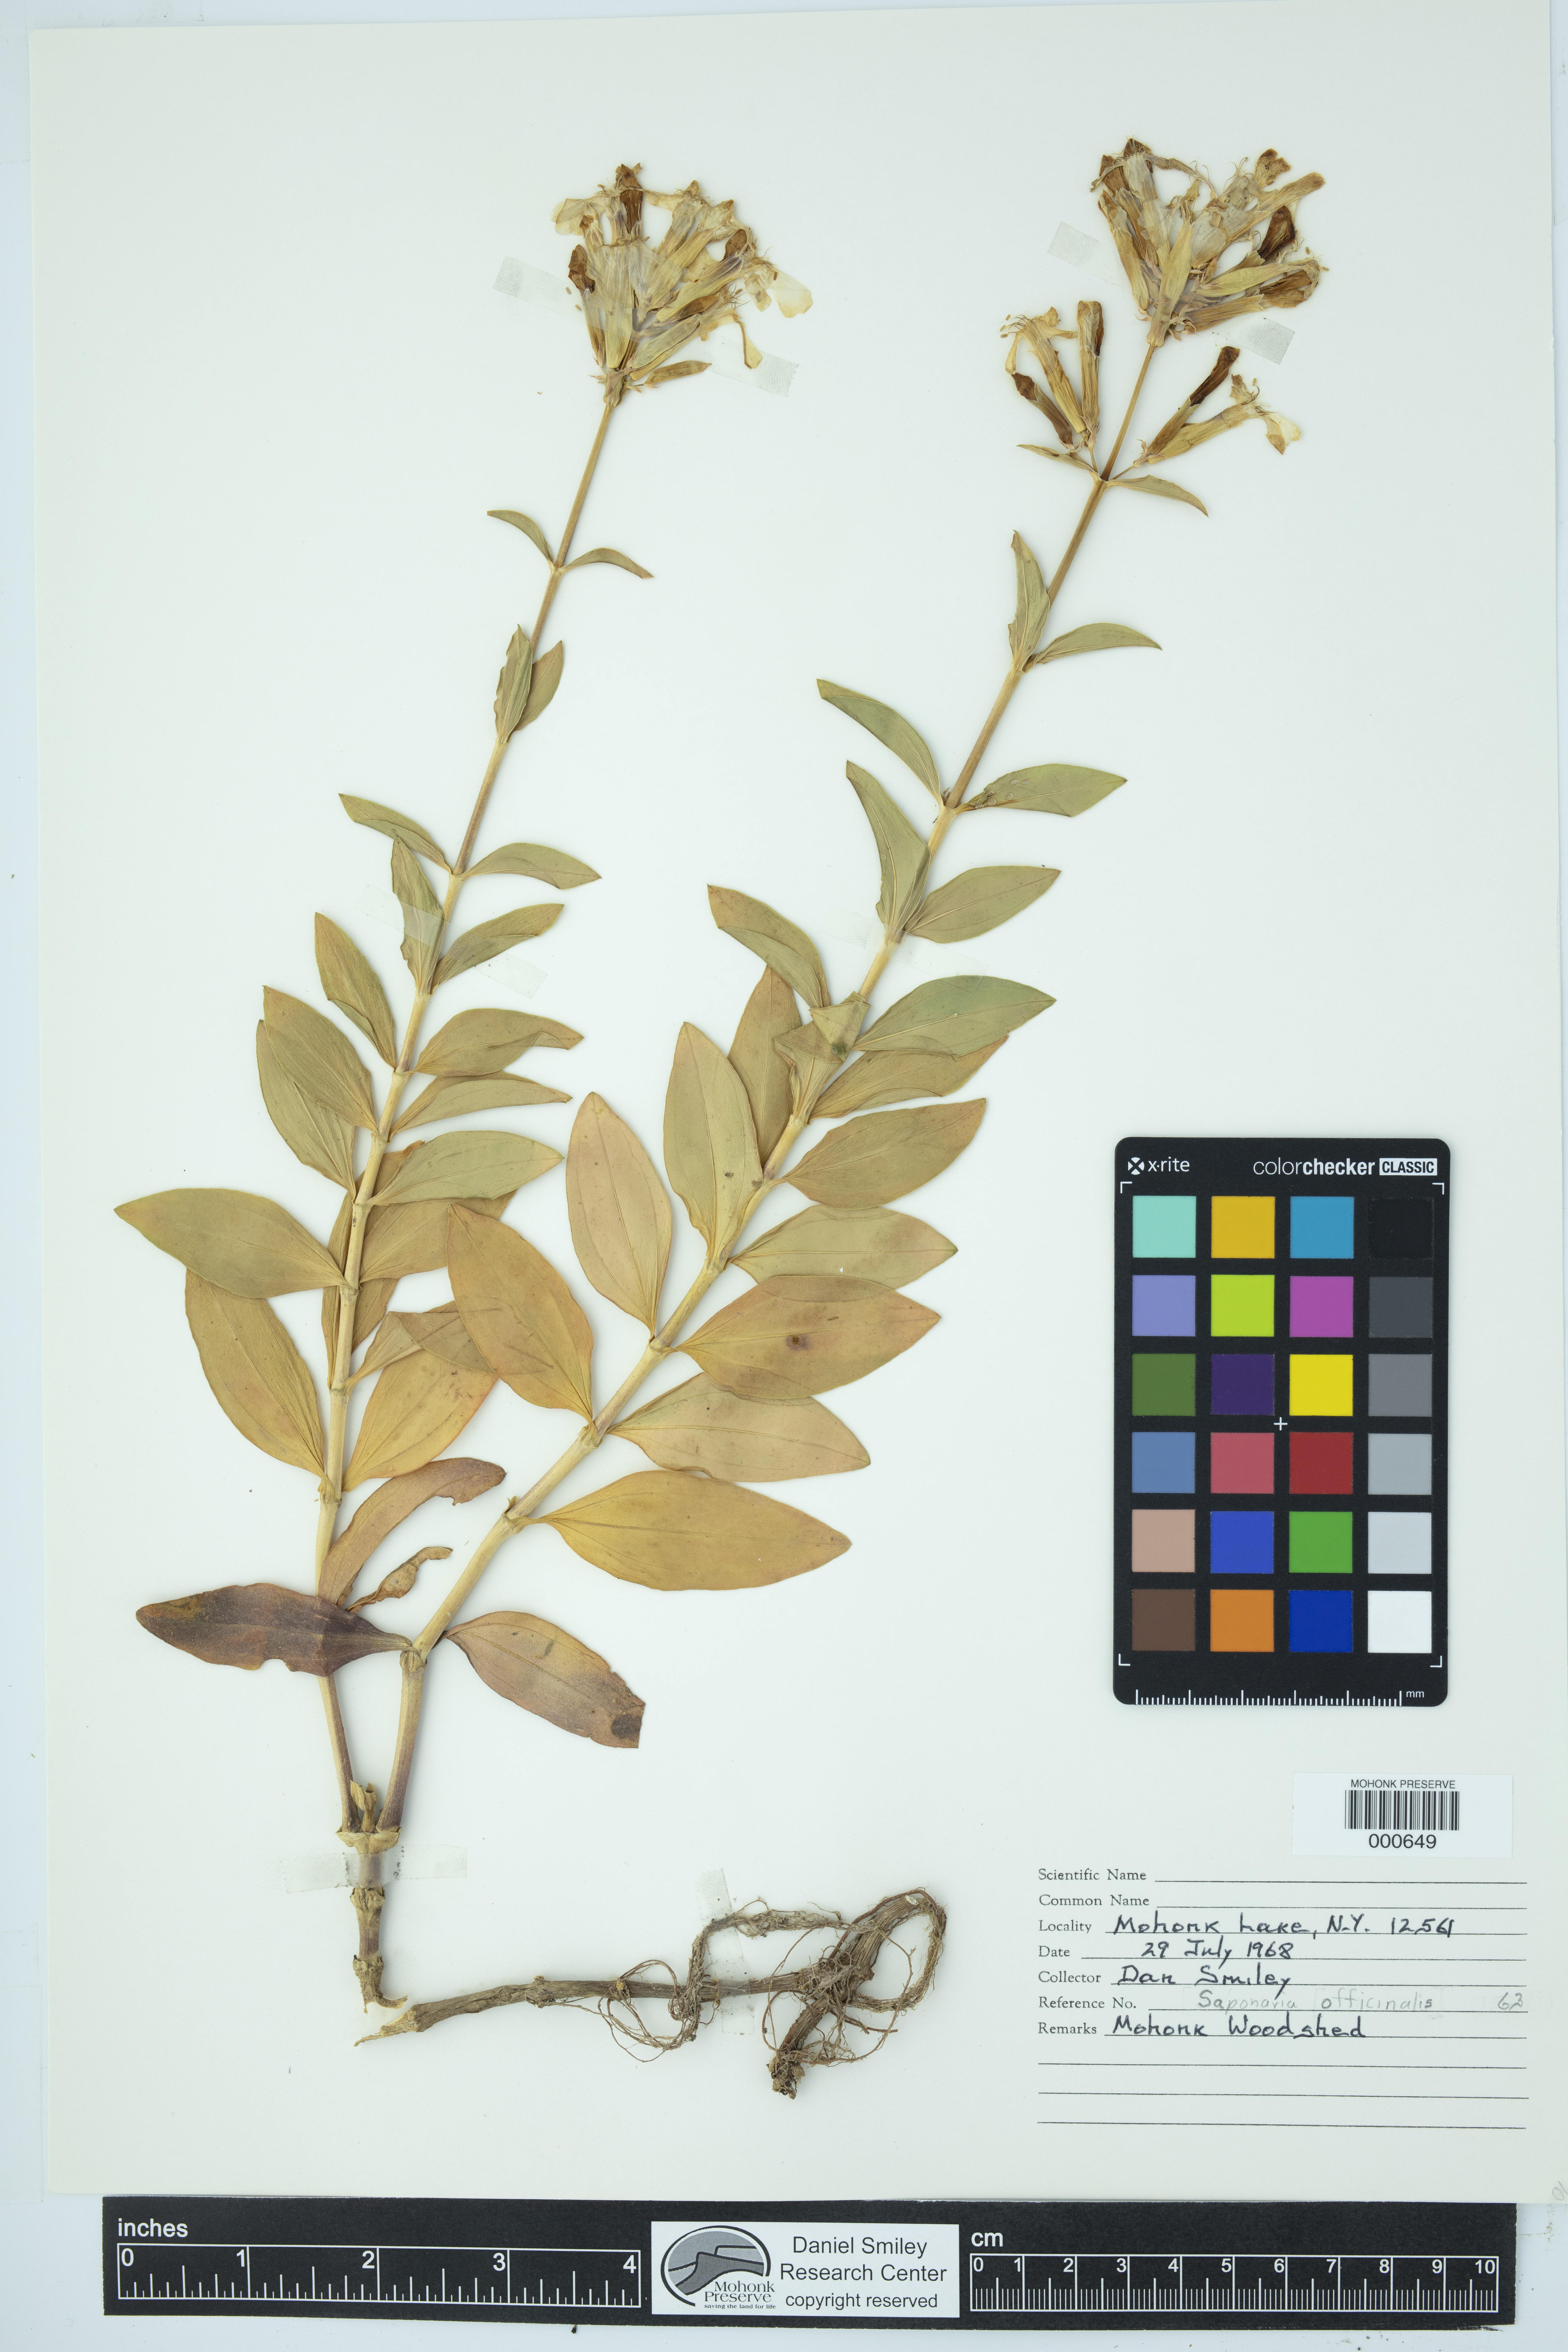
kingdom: Plantae
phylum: Tracheophyta
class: Magnoliopsida
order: Caryophyllales
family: Caryophyllaceae
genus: Saponaria
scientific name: Saponaria officinalis
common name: Soapwort
